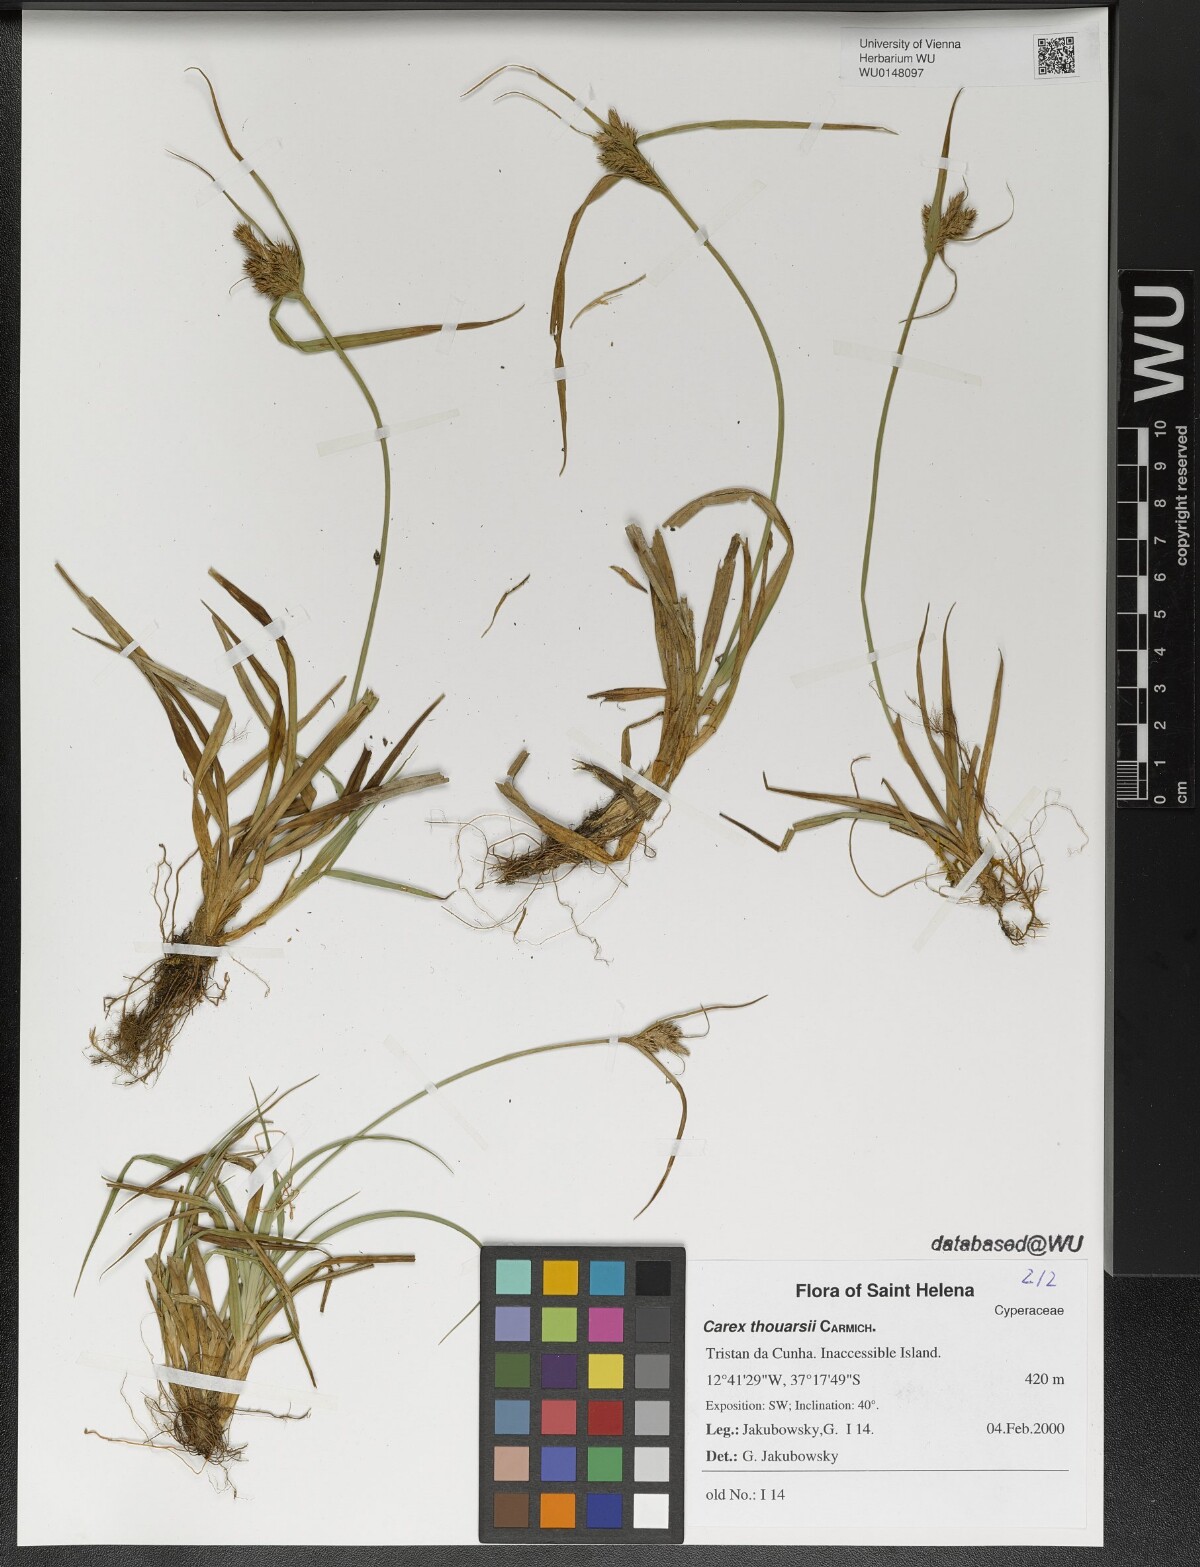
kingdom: Plantae
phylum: Tracheophyta
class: Liliopsida
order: Poales
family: Cyperaceae
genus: Carex
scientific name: Carex thouarsii
